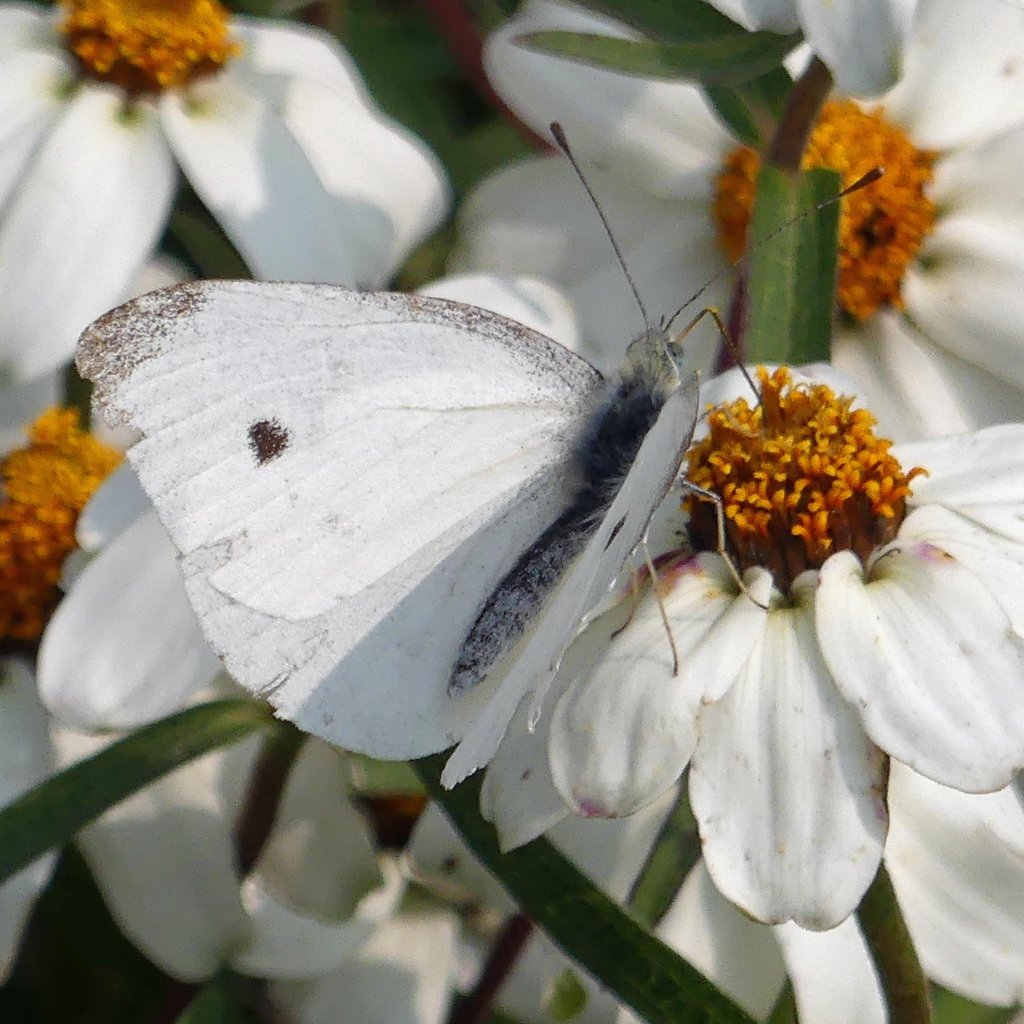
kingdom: Animalia
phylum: Arthropoda
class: Insecta
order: Lepidoptera
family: Pieridae
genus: Pieris
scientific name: Pieris rapae
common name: Cabbage White
